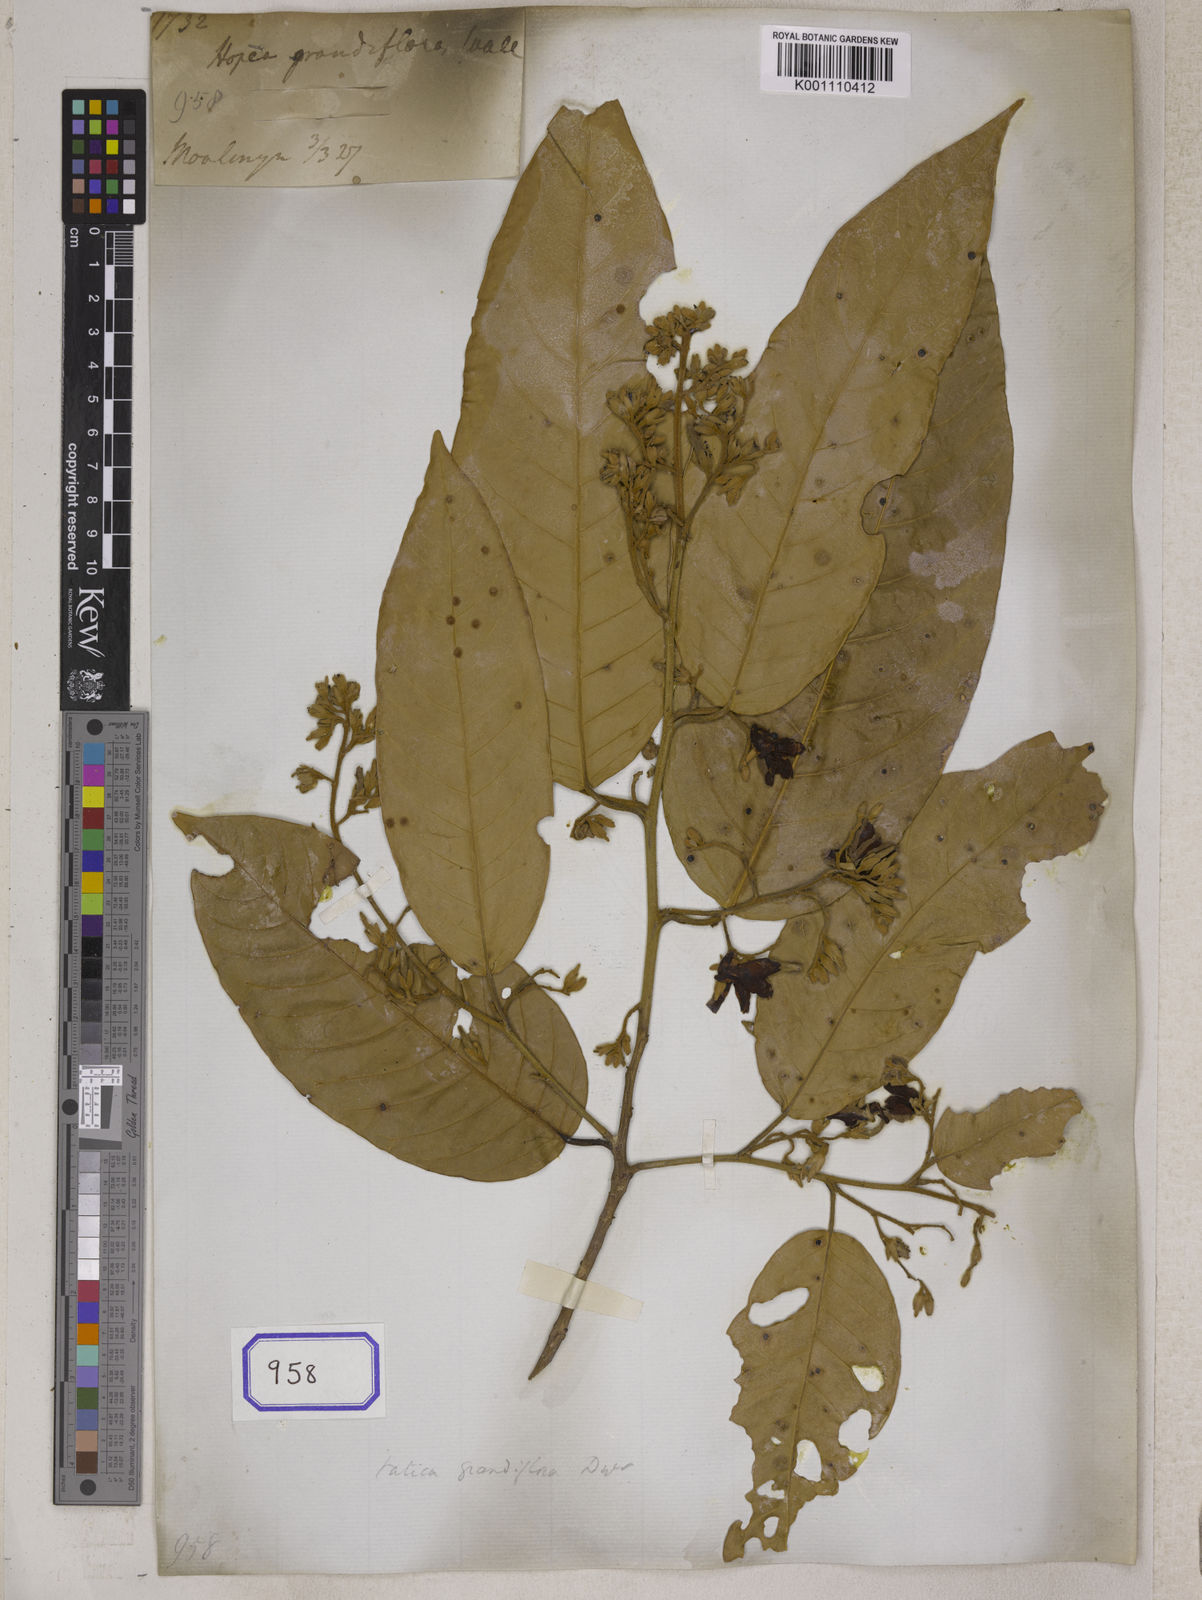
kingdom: Plantae
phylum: Tracheophyta
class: Magnoliopsida
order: Malvales
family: Dipterocarpaceae
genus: Hopea
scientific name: Hopea
